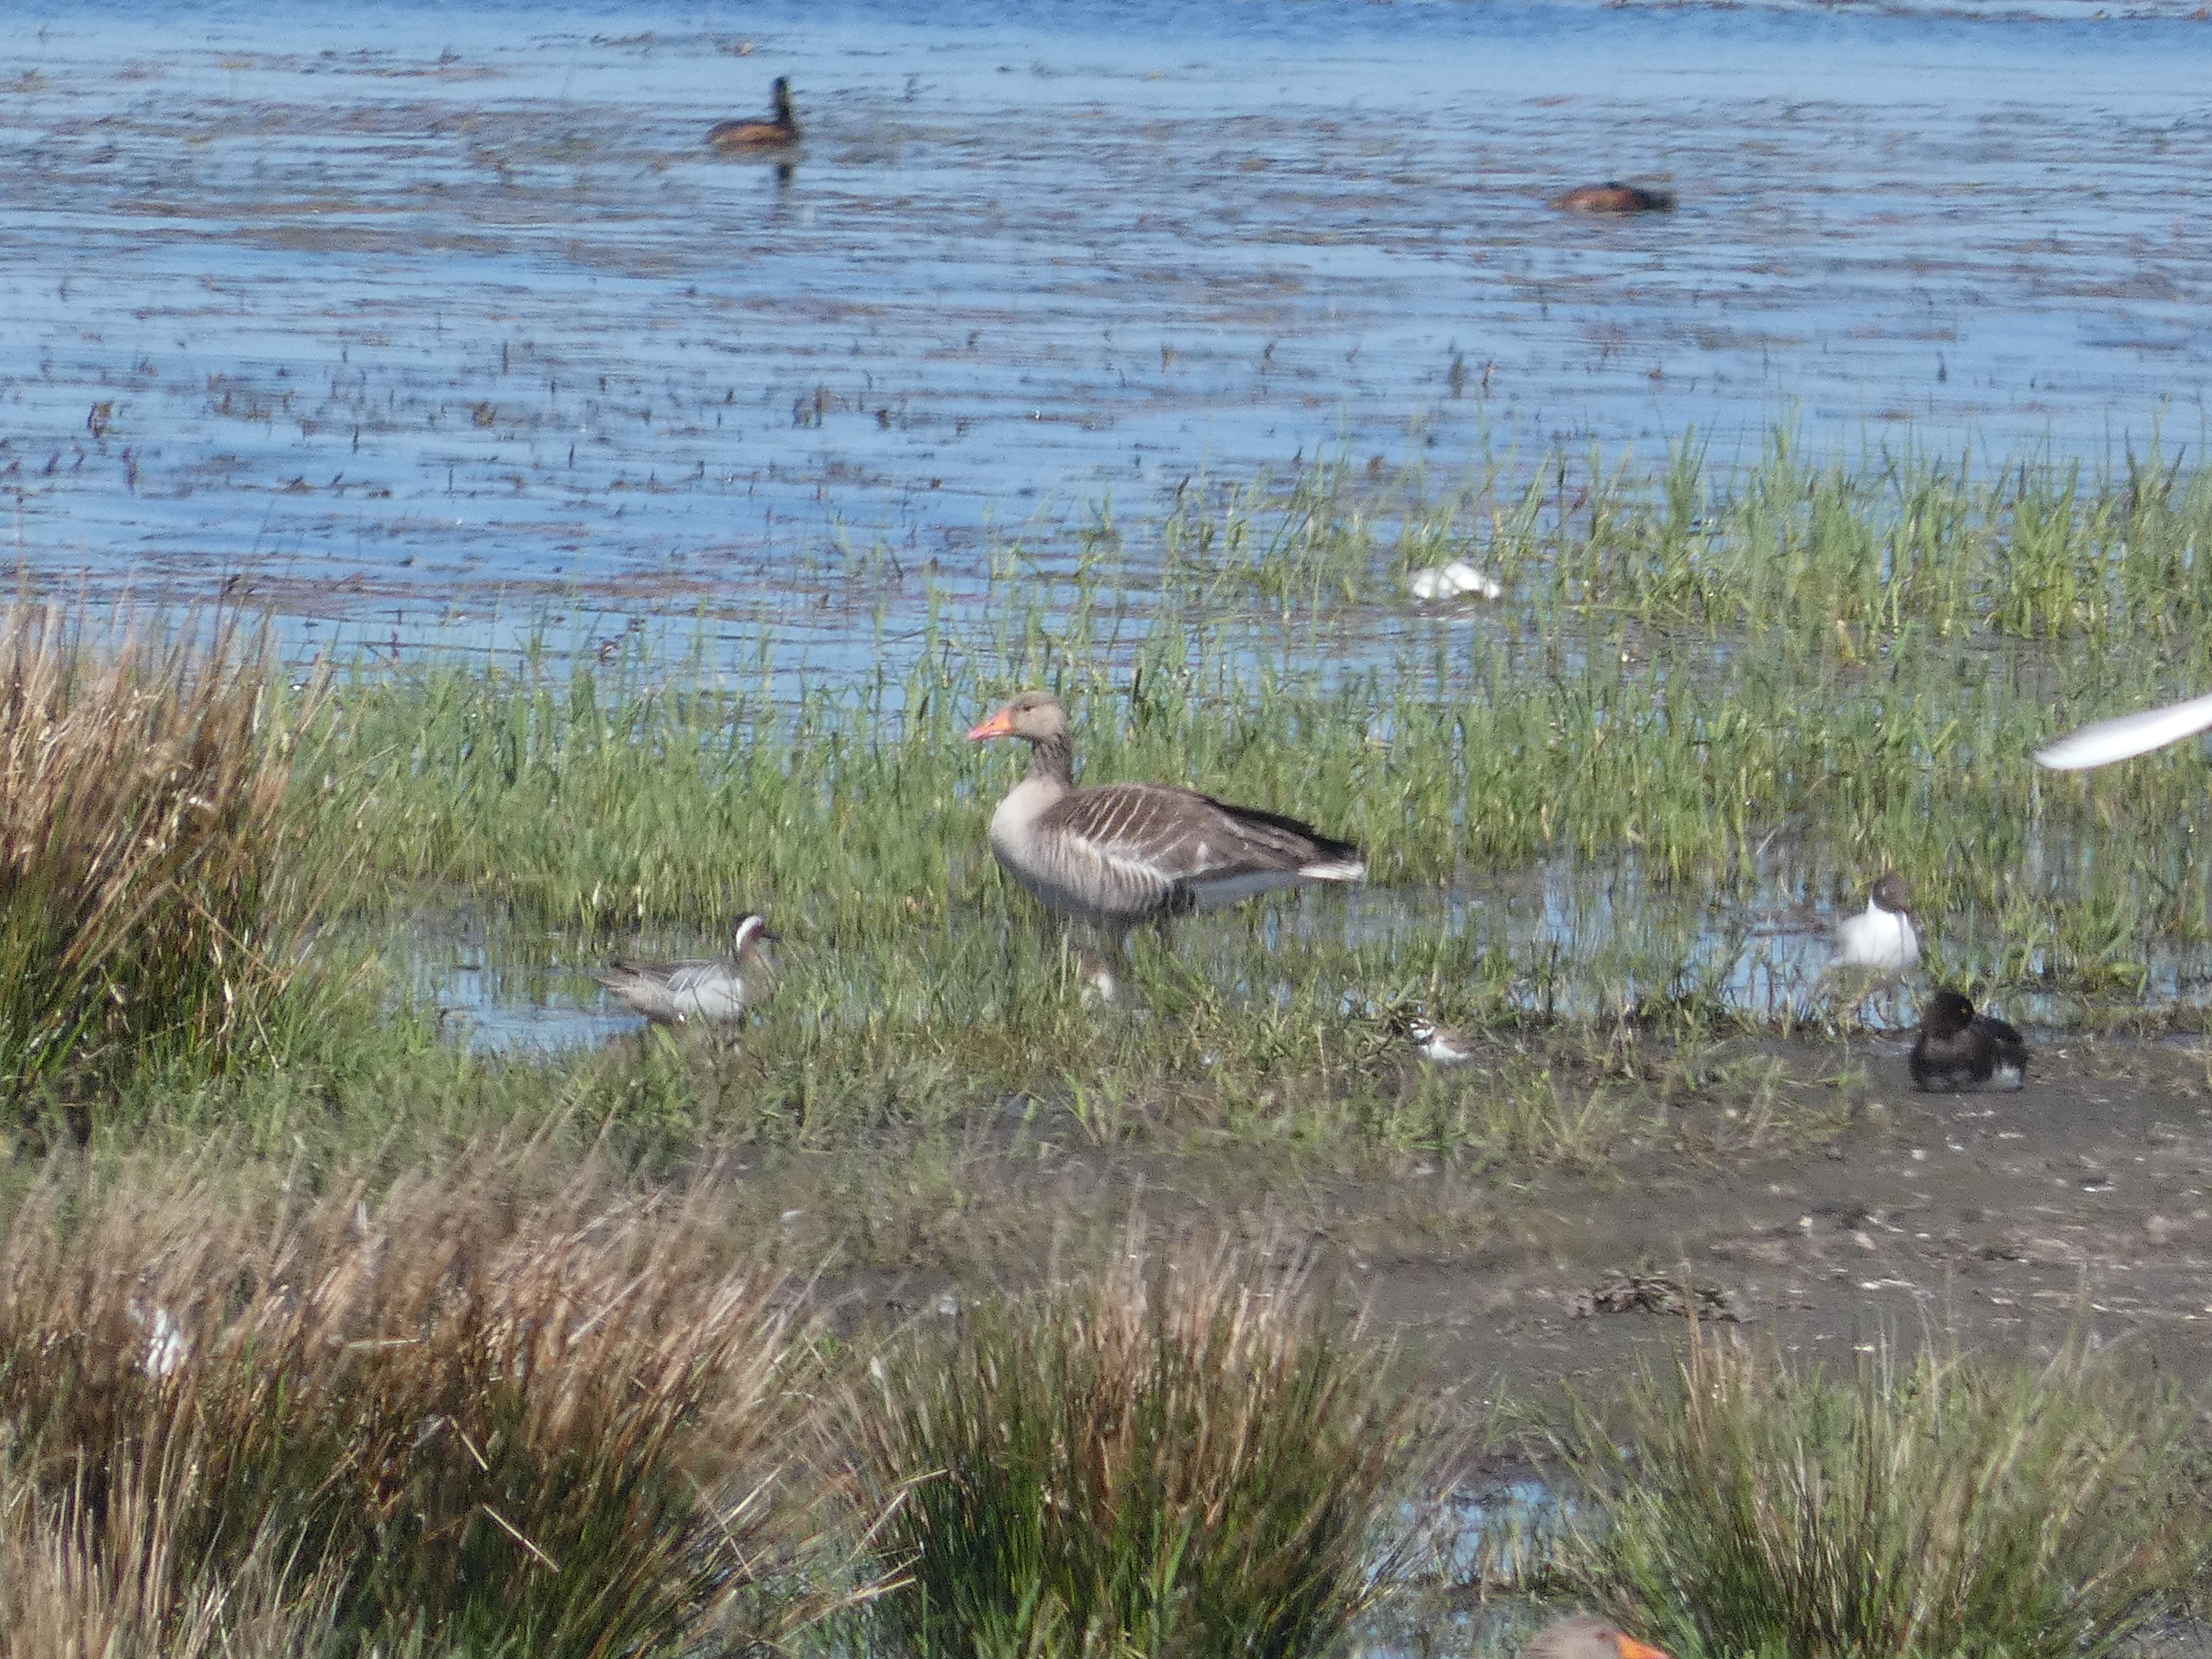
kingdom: Animalia
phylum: Chordata
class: Aves
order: Charadriiformes
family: Charadriidae
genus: Charadrius
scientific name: Charadrius dubius
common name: Lille præstekrave
